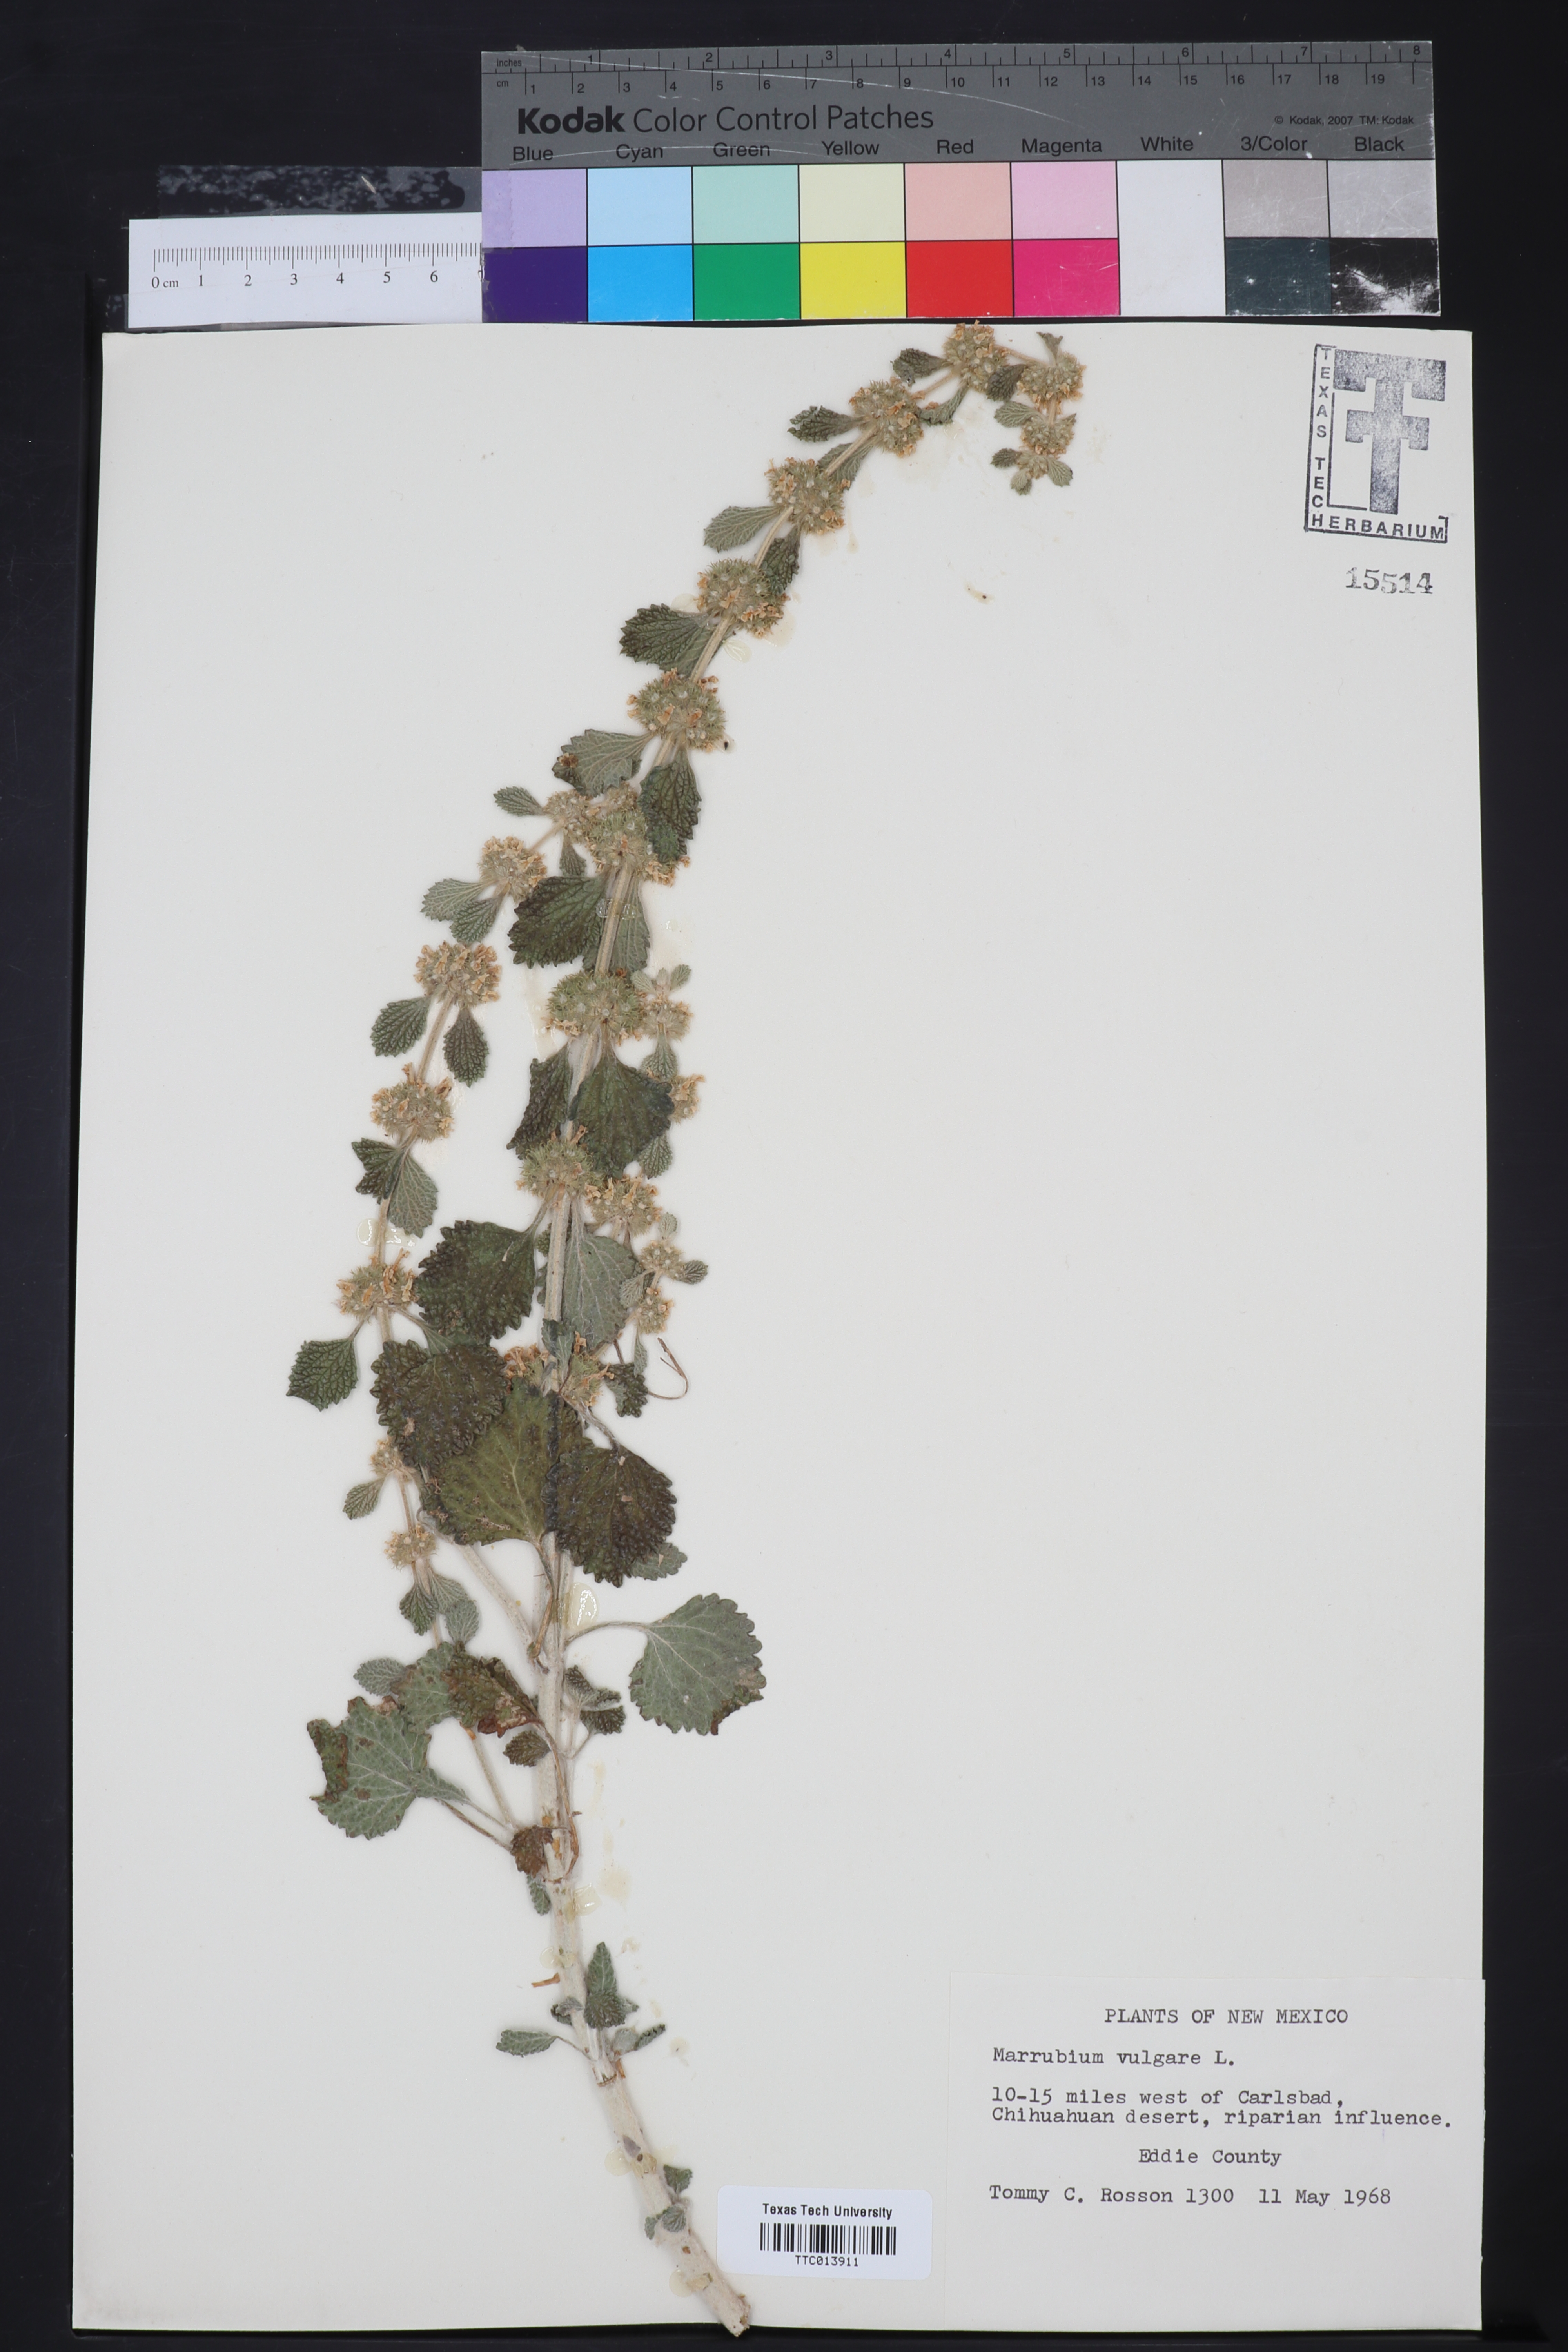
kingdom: Plantae
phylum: Tracheophyta
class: Magnoliopsida
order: Lamiales
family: Lamiaceae
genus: Marrubium
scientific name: Marrubium vulgare
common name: Horehound
